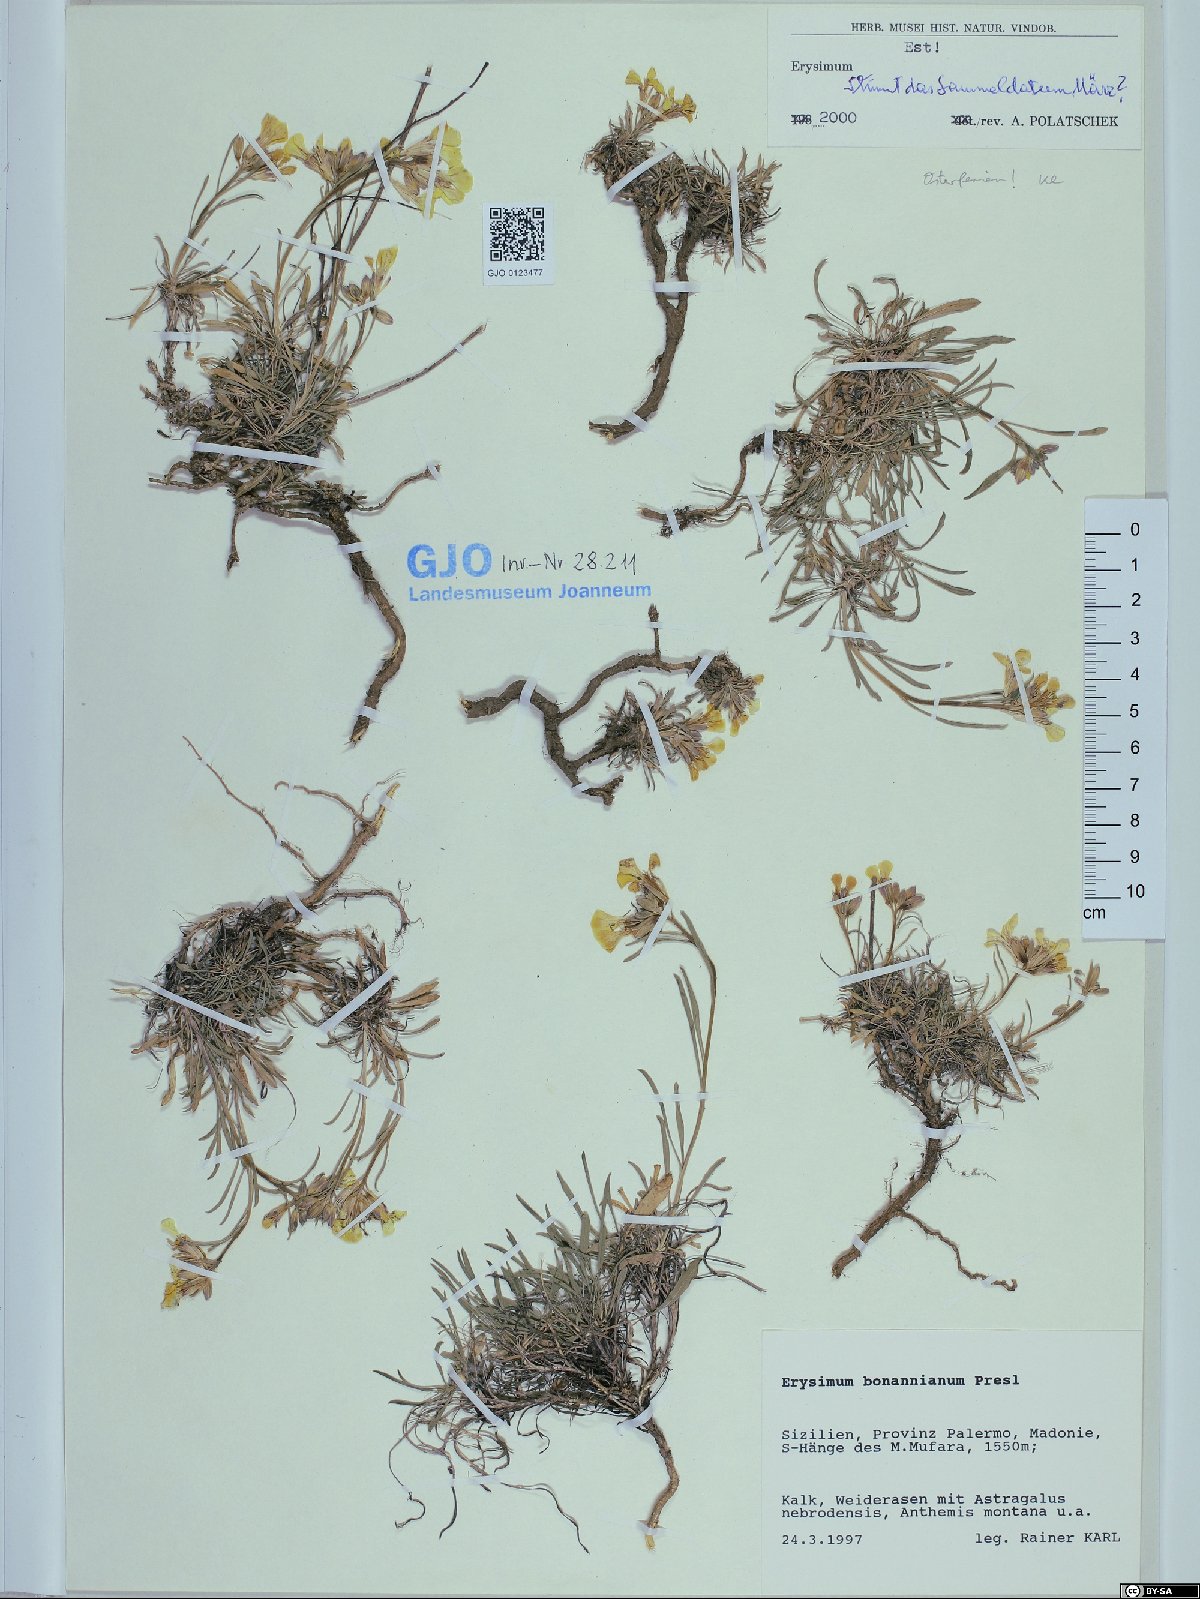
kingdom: Plantae
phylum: Tracheophyta
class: Magnoliopsida
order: Brassicales
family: Brassicaceae
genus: Erysimum
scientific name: Erysimum bonannianum
